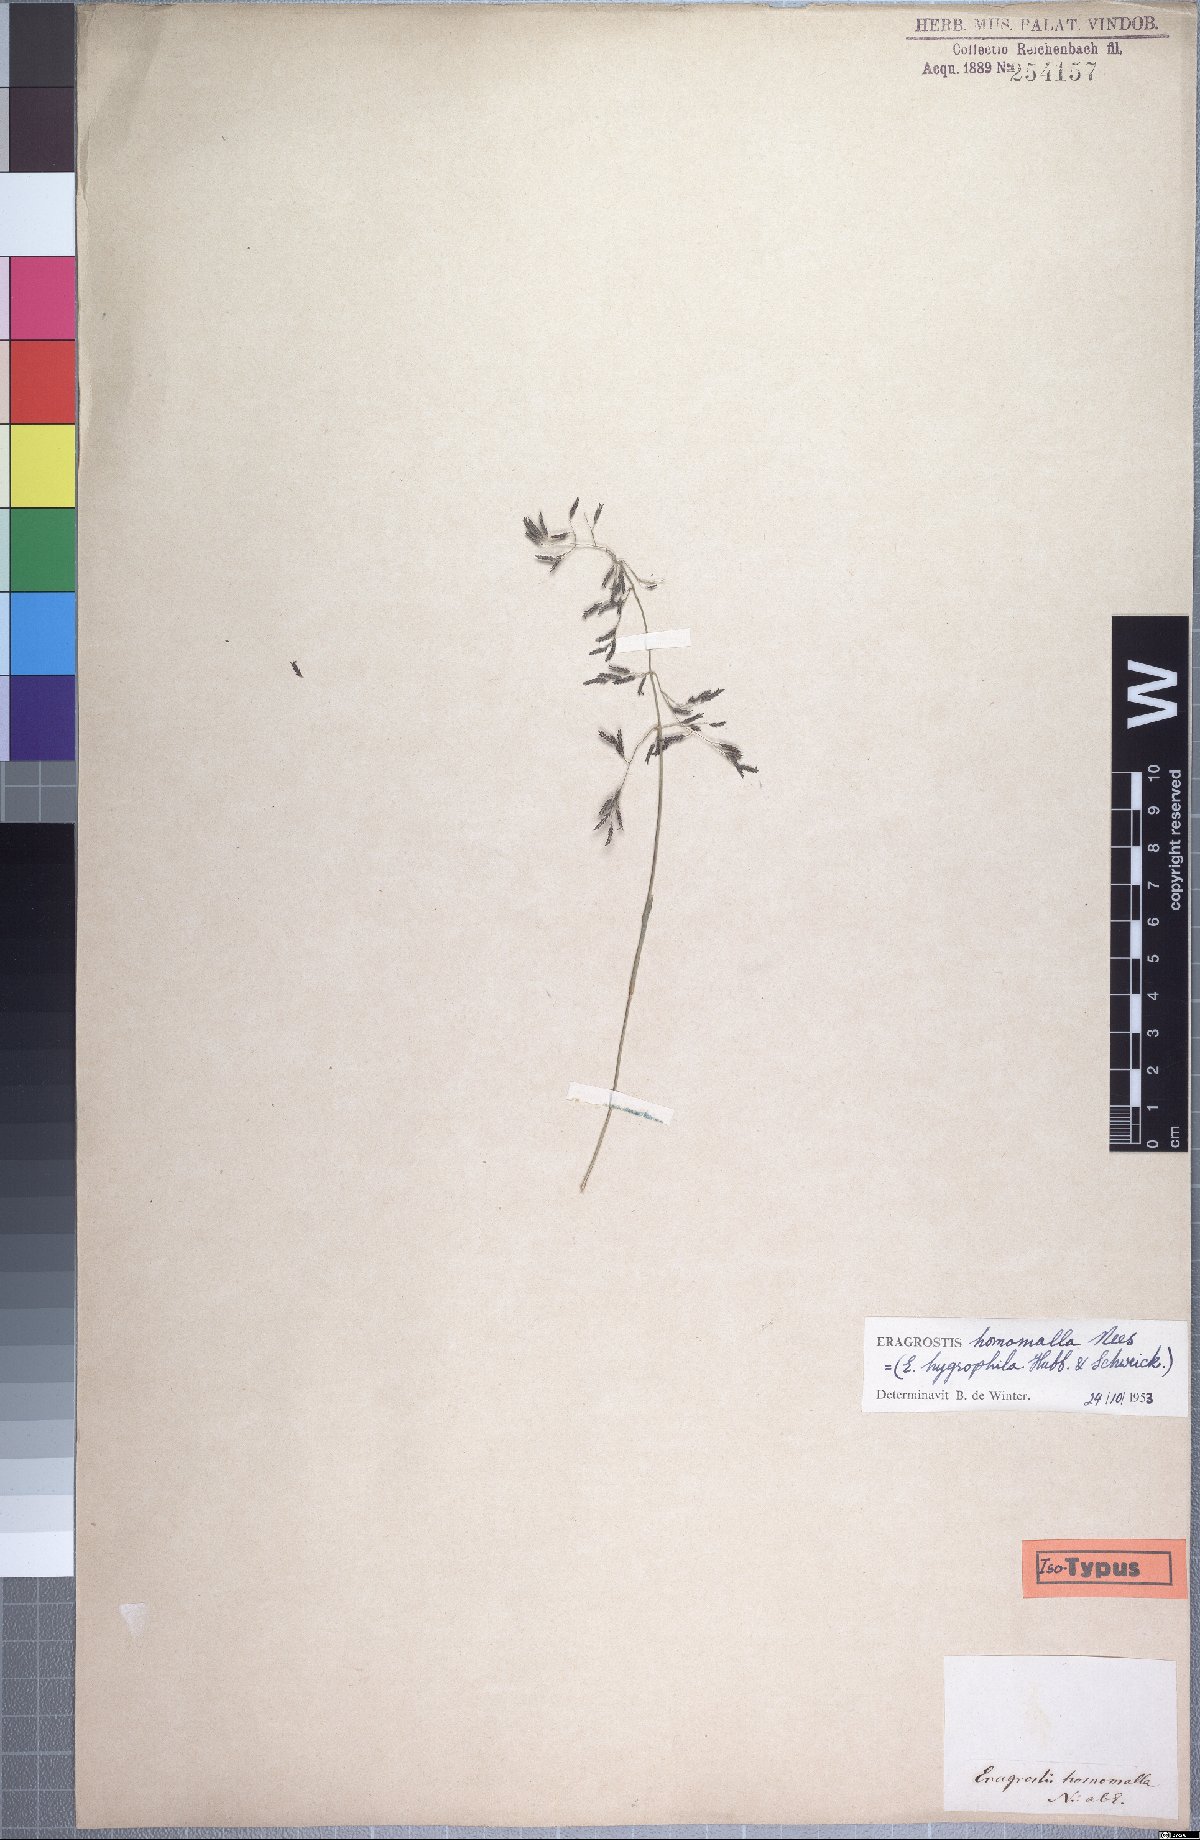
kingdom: Plantae
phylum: Tracheophyta
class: Liliopsida
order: Poales
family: Poaceae
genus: Eragrostis
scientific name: Eragrostis homomalla
